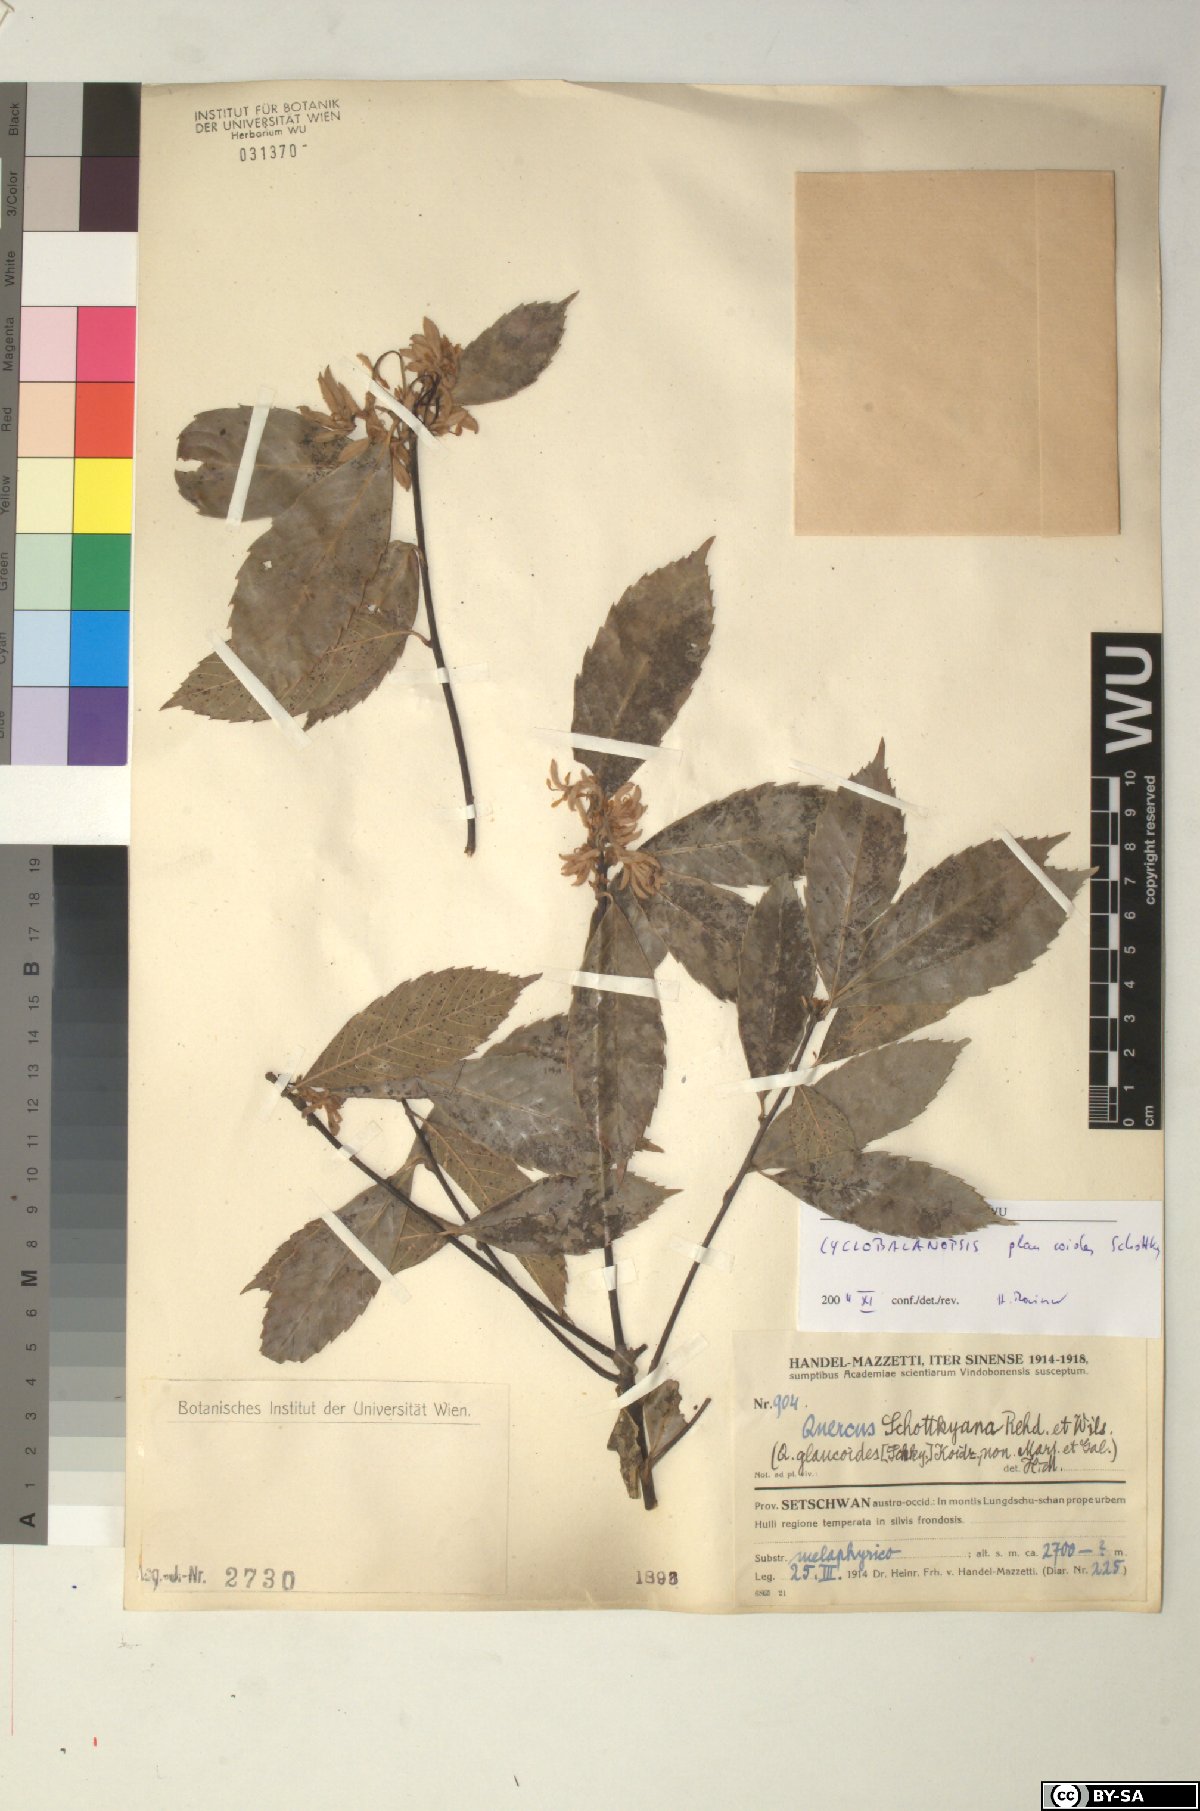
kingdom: Plantae
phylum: Tracheophyta
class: Magnoliopsida
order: Fagales
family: Fagaceae
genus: Quercus
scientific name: Quercus schottkyana
